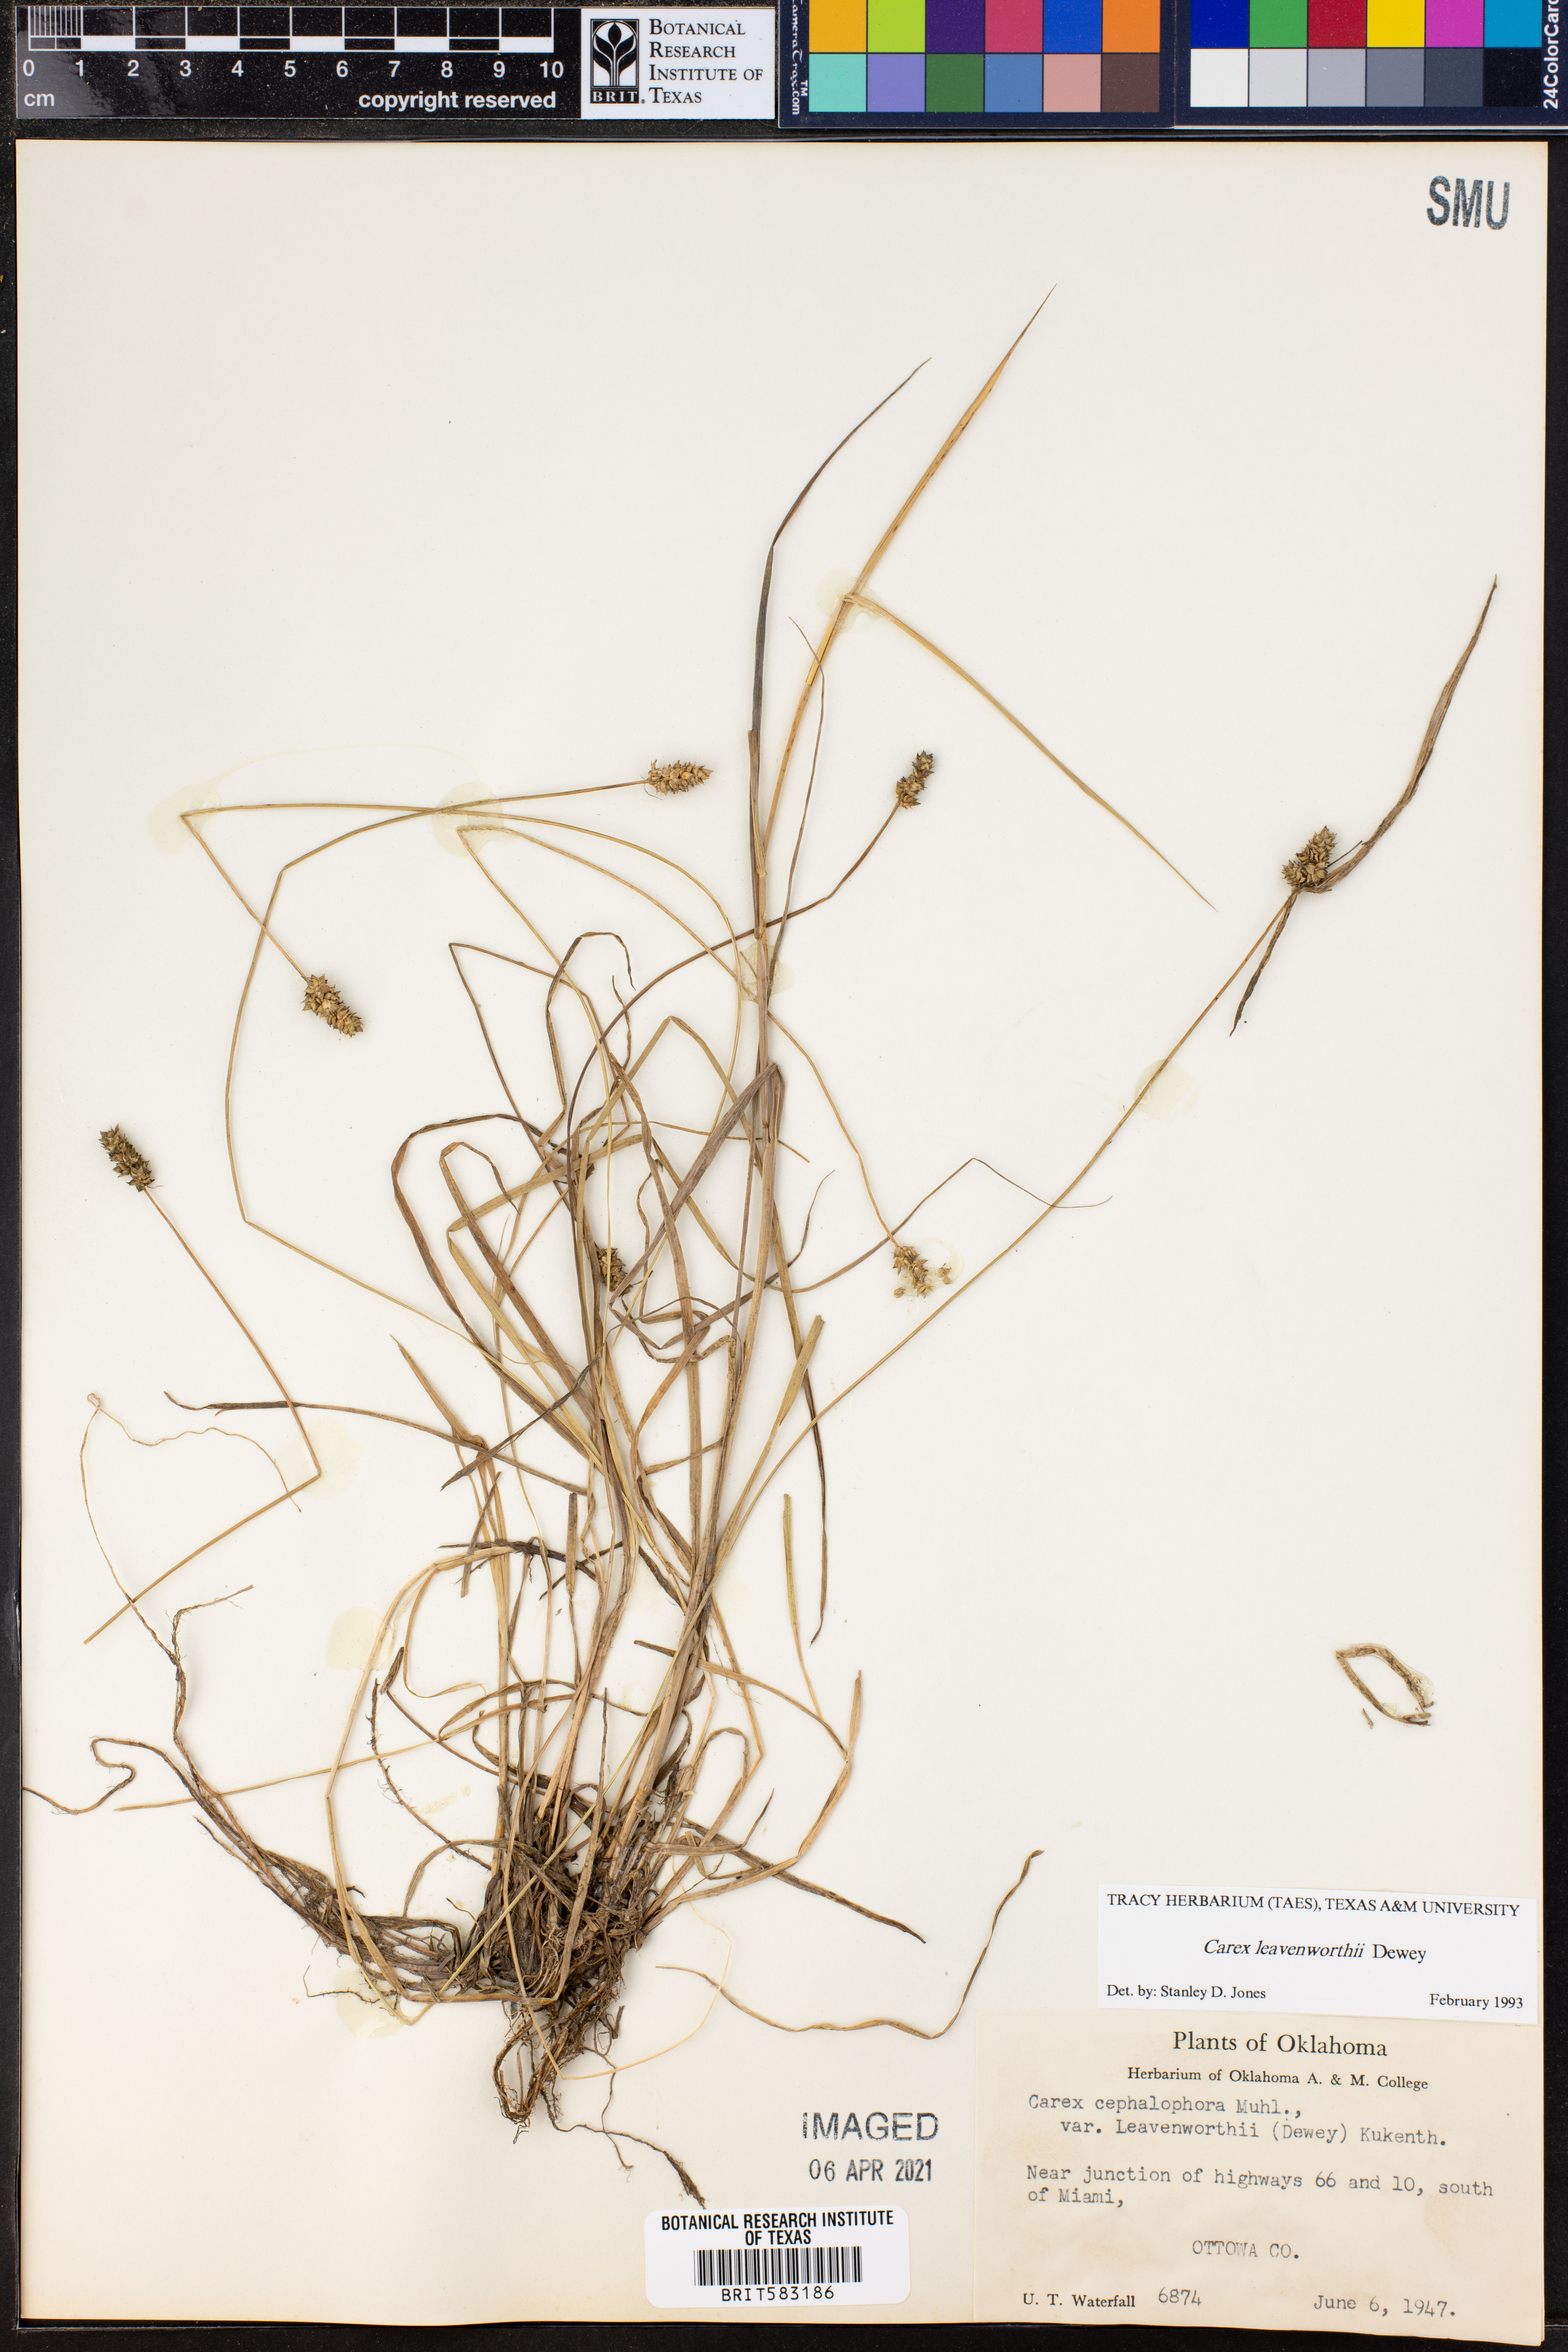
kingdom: Plantae
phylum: Tracheophyta
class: Liliopsida
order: Poales
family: Cyperaceae
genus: Carex
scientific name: Carex leavenworthii
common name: Leavenworth's bracted sedge
